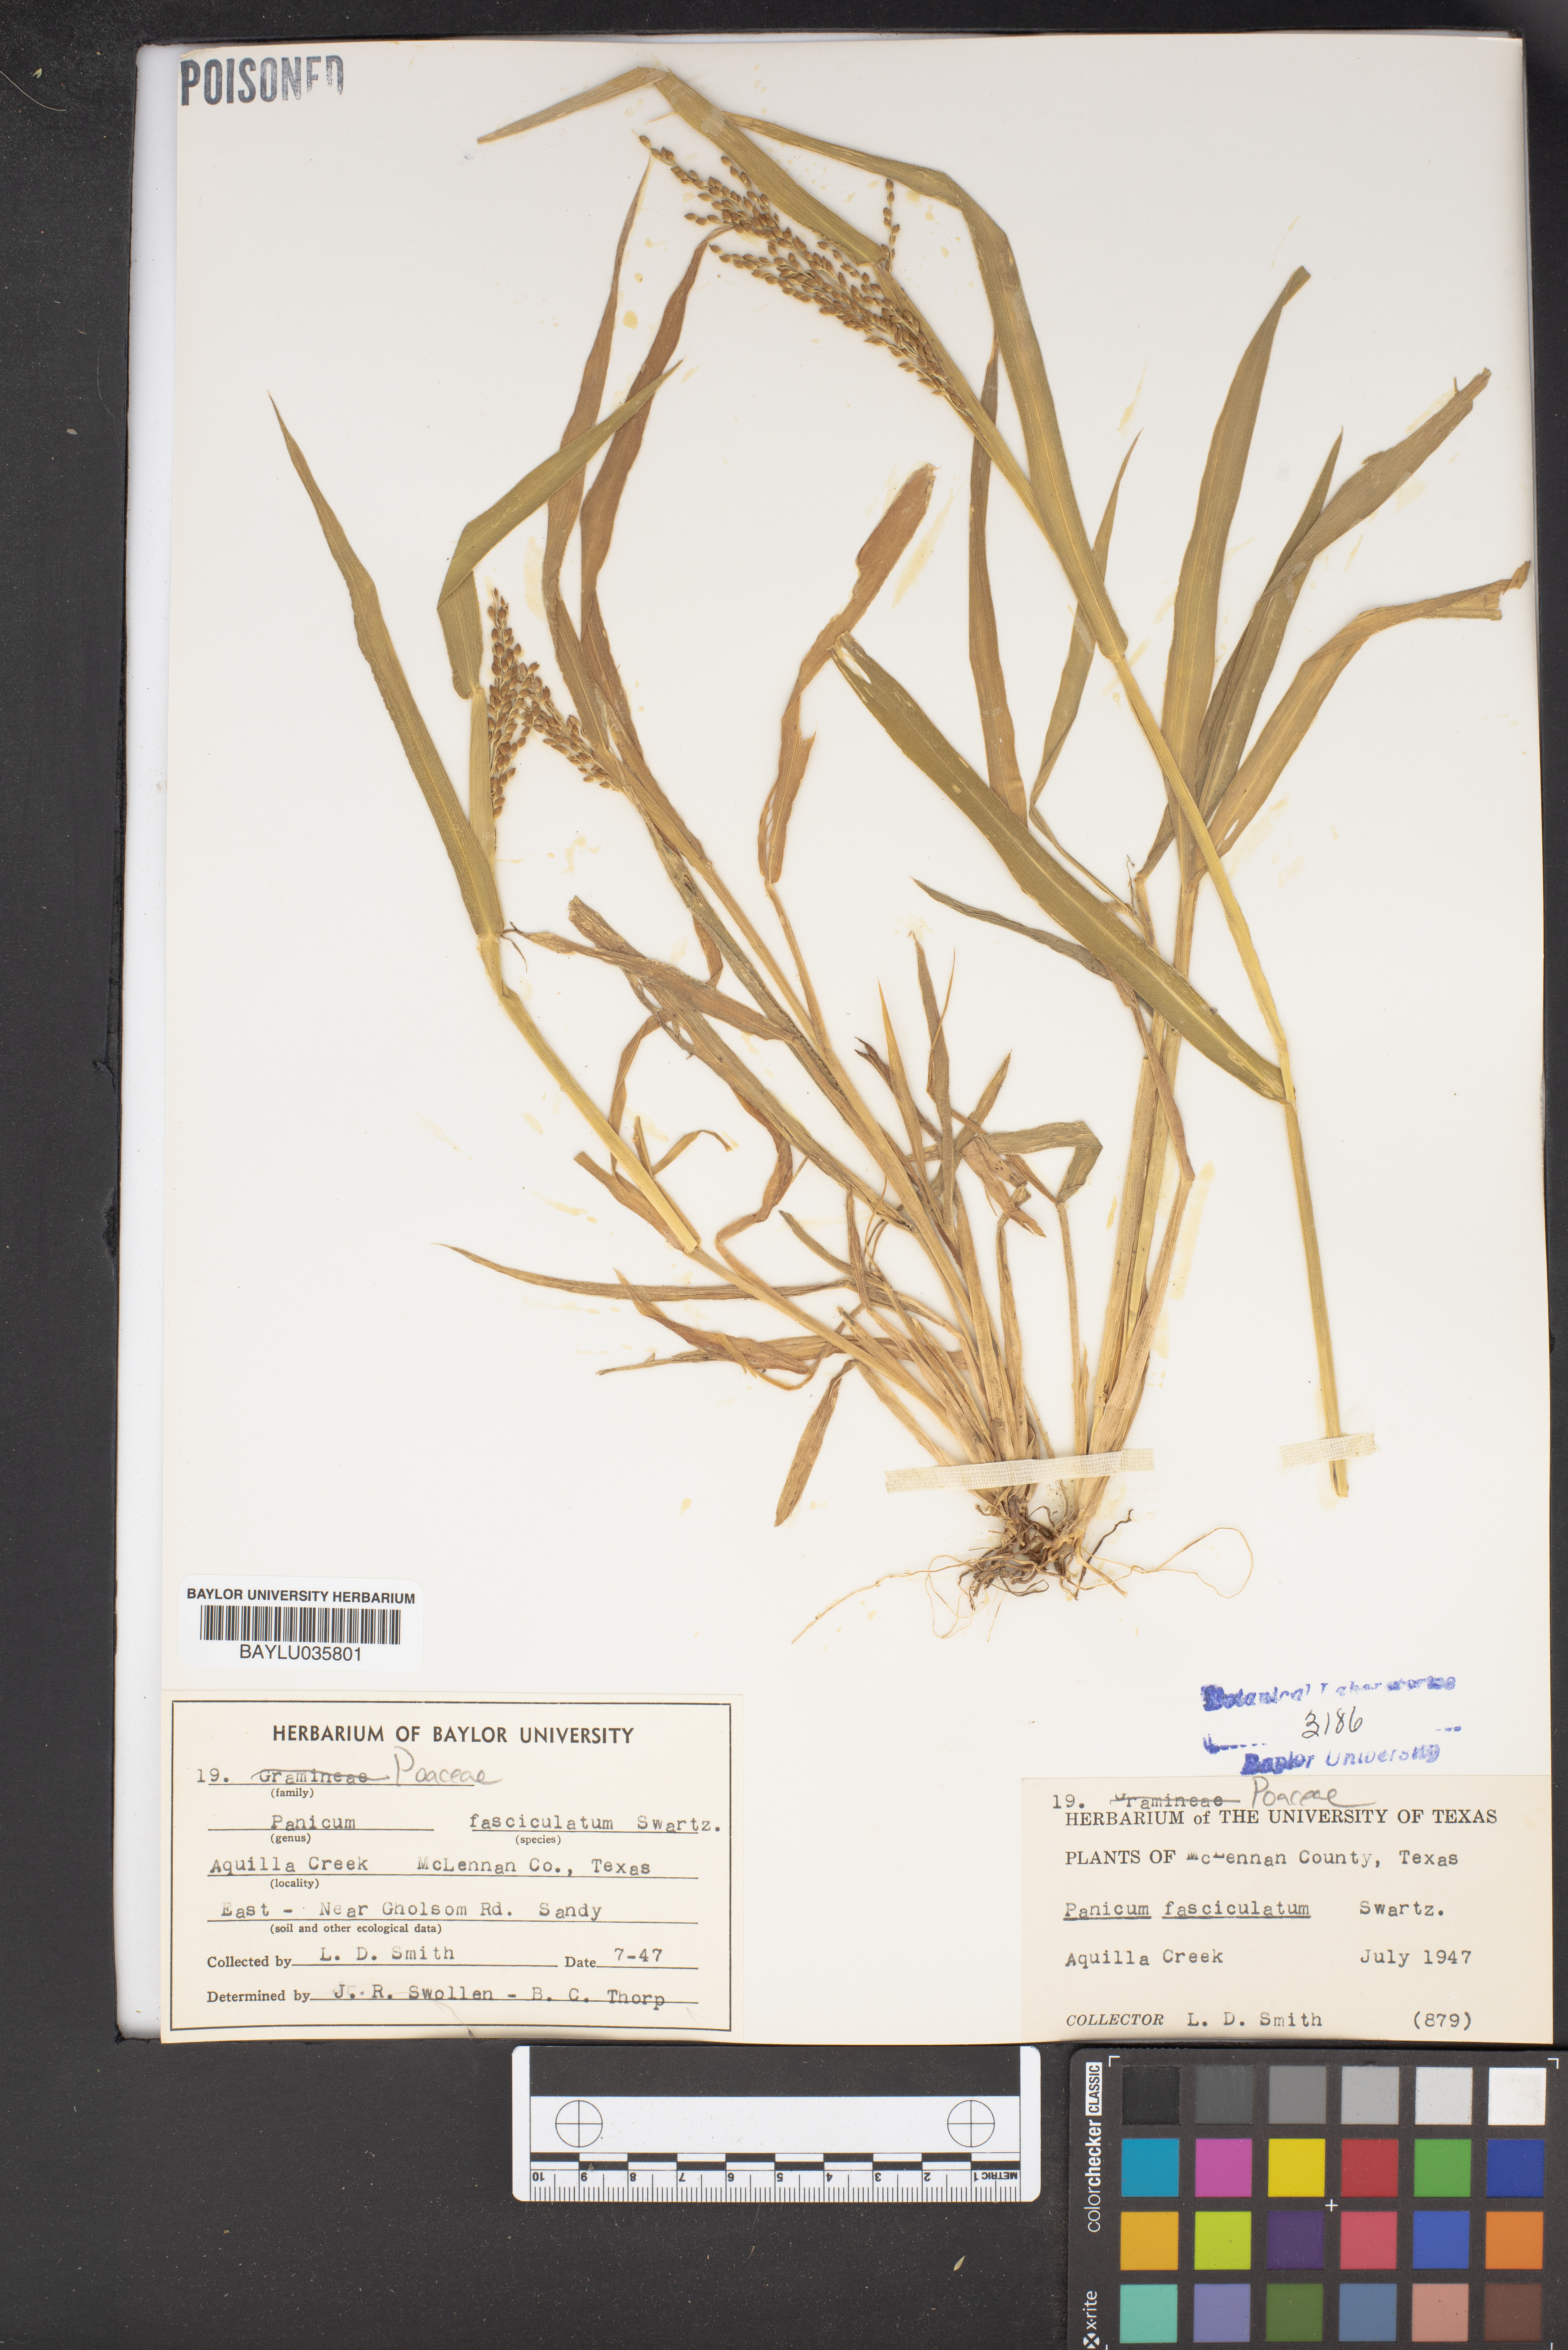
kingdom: Plantae
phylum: Tracheophyta
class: Liliopsida
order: Poales
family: Poaceae
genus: Urochloa
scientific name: Urochloa fusca
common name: Browntop signal grass
